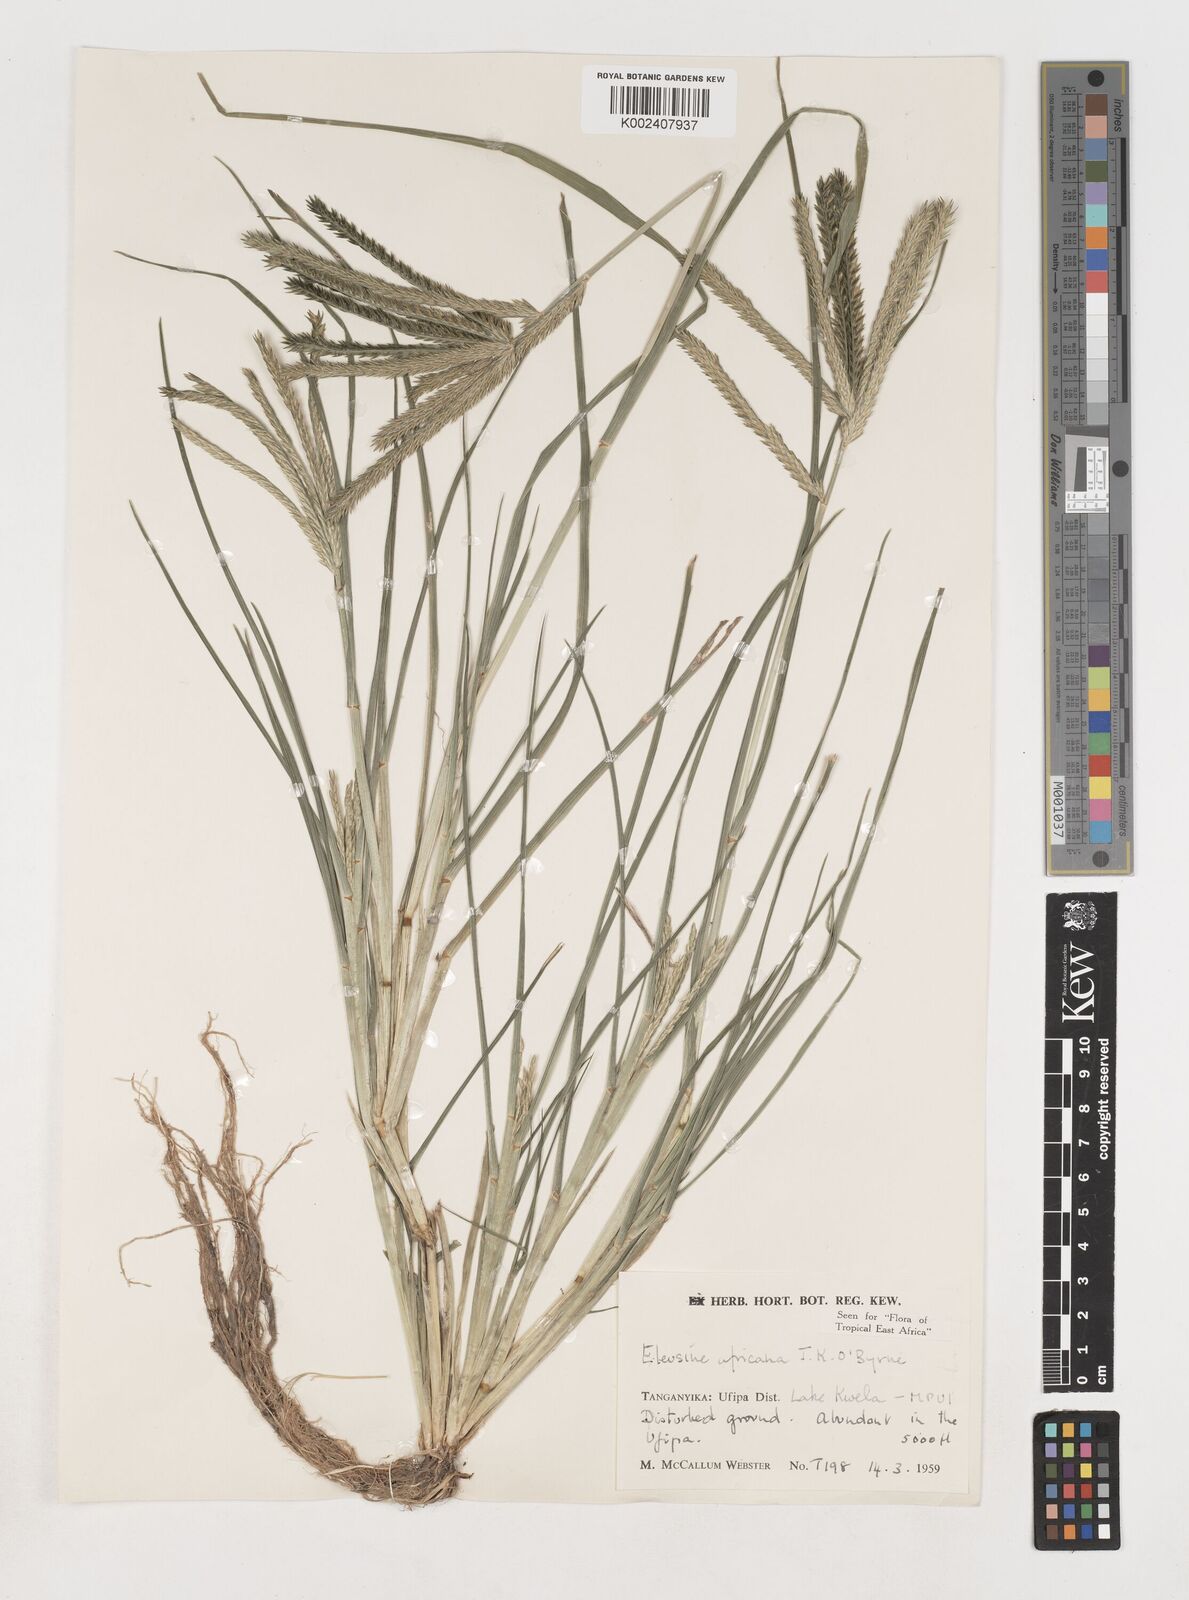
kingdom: Plantae
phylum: Tracheophyta
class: Liliopsida
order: Poales
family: Poaceae
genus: Eleusine
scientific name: Eleusine africana
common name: Wild african finger millet
